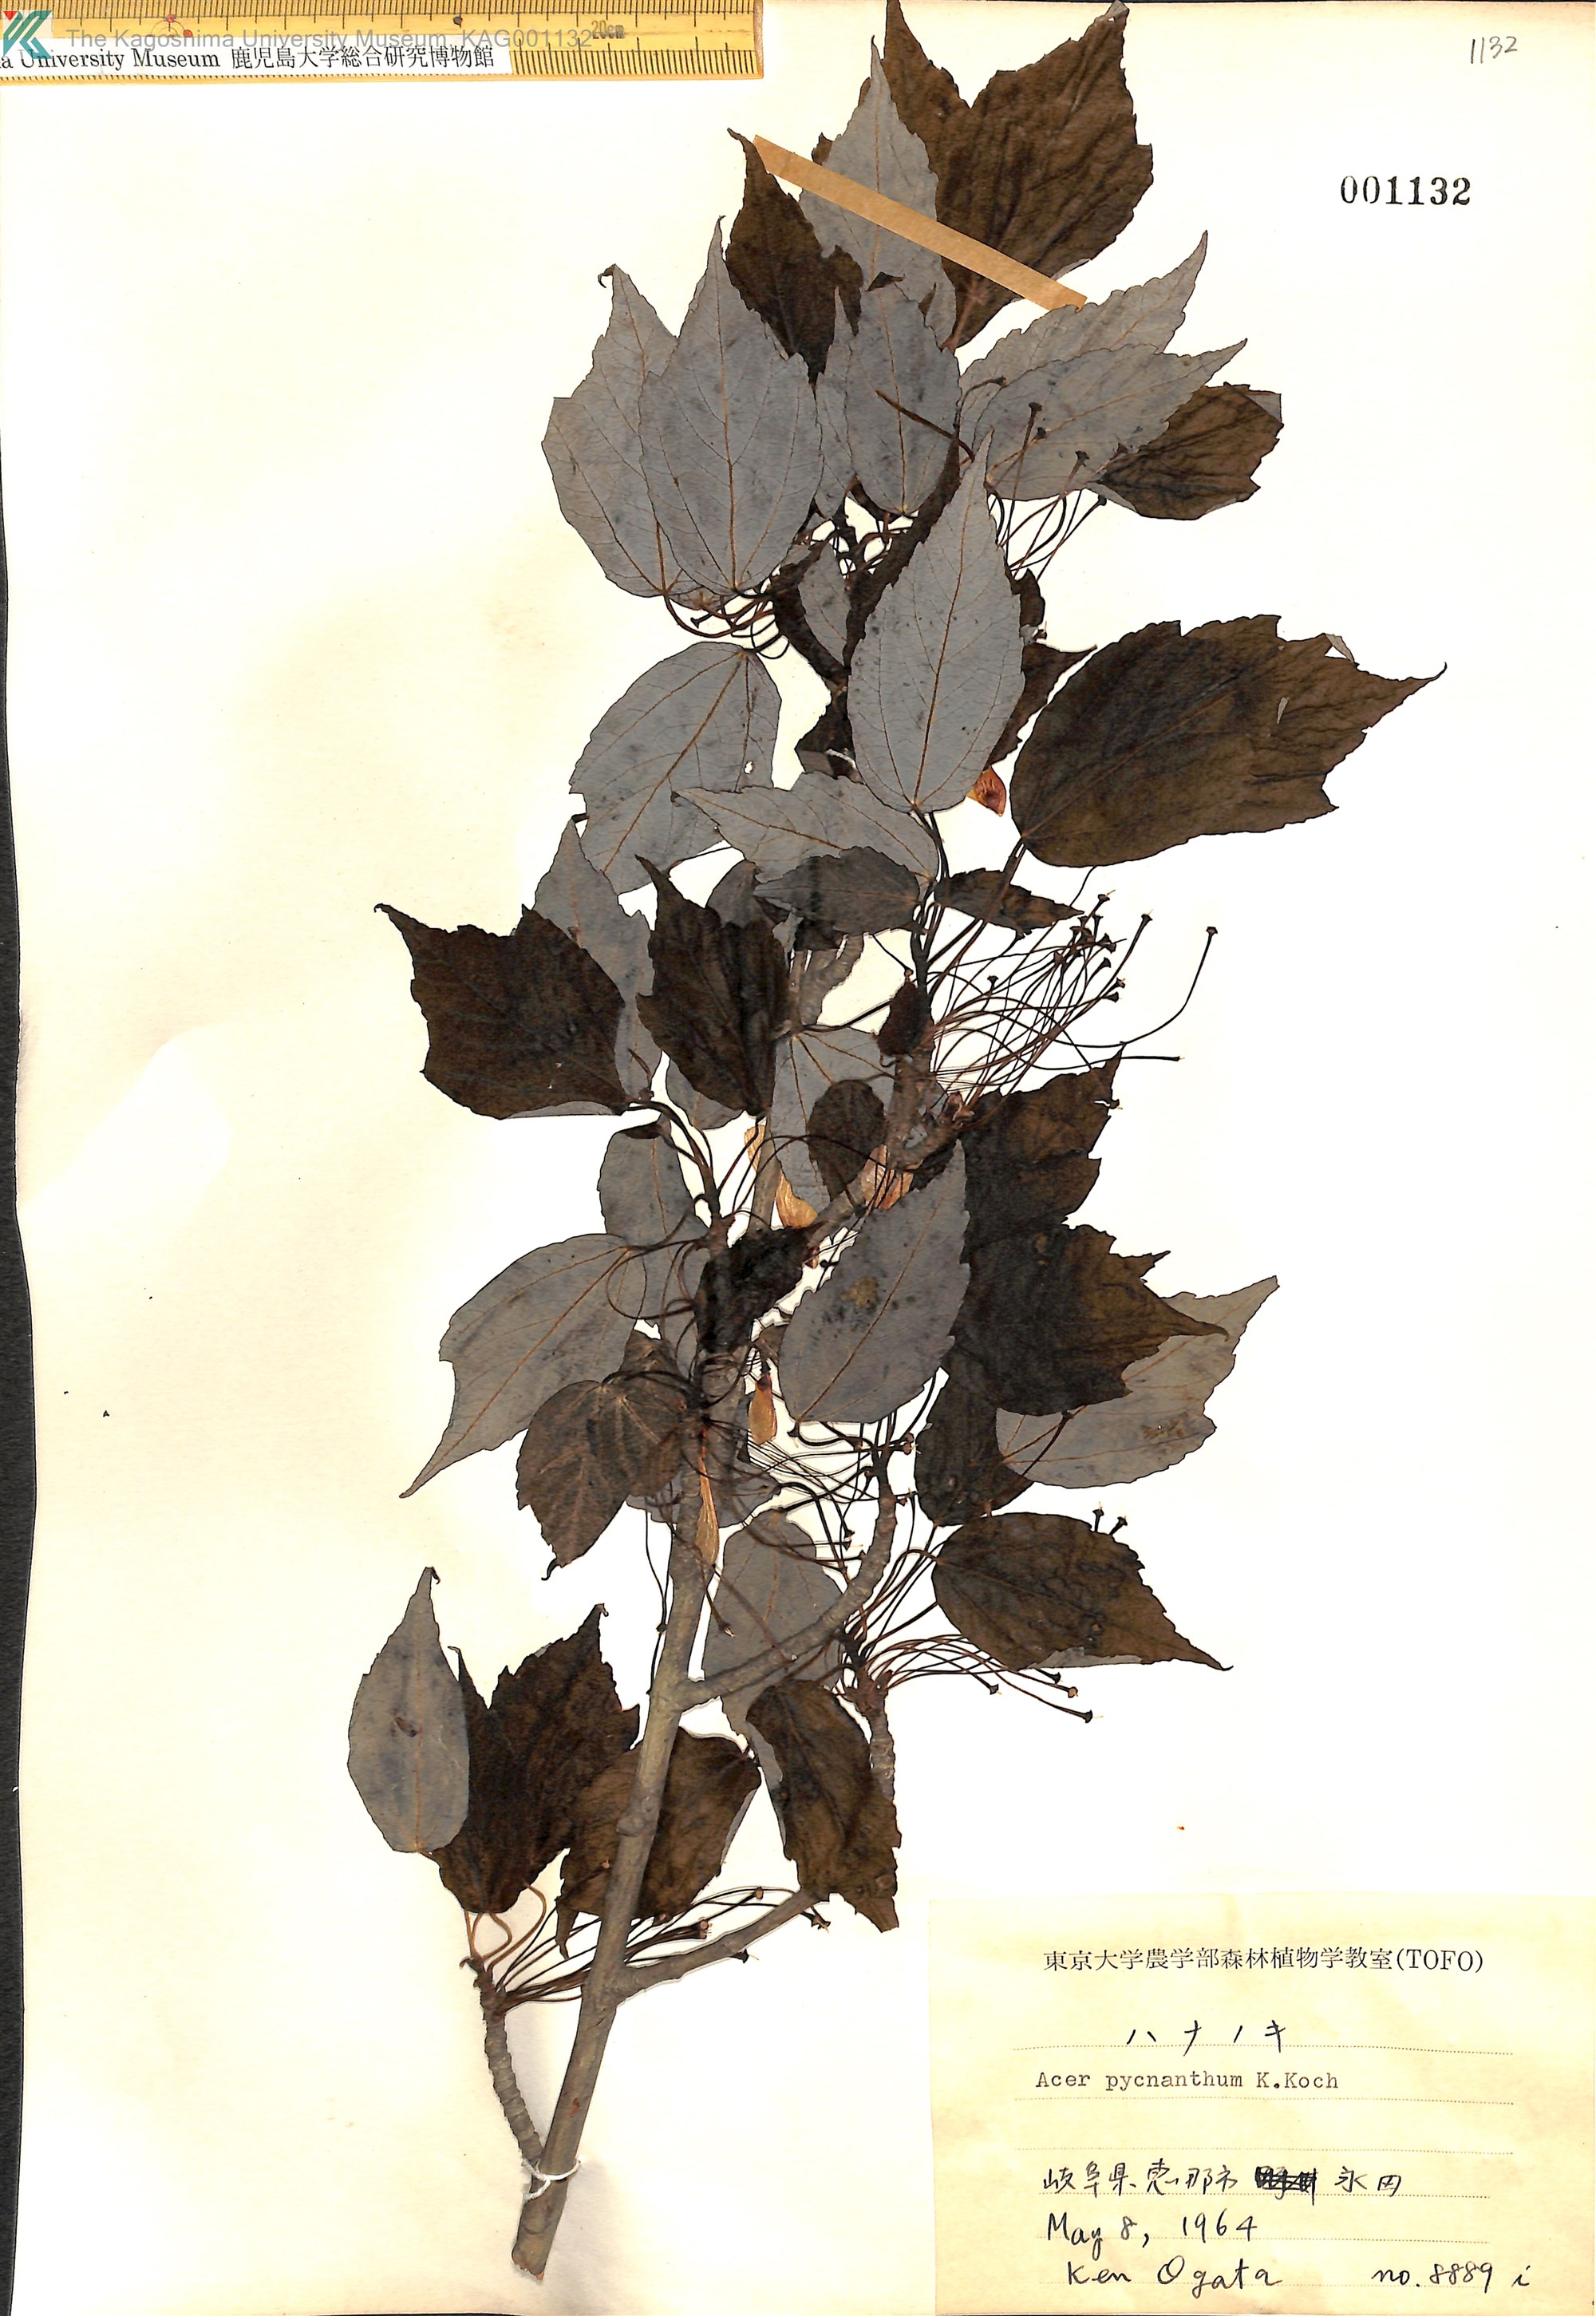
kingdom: Plantae
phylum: Tracheophyta
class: Magnoliopsida
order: Sapindales
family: Sapindaceae
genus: Acer
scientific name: Acer pycnanthum
